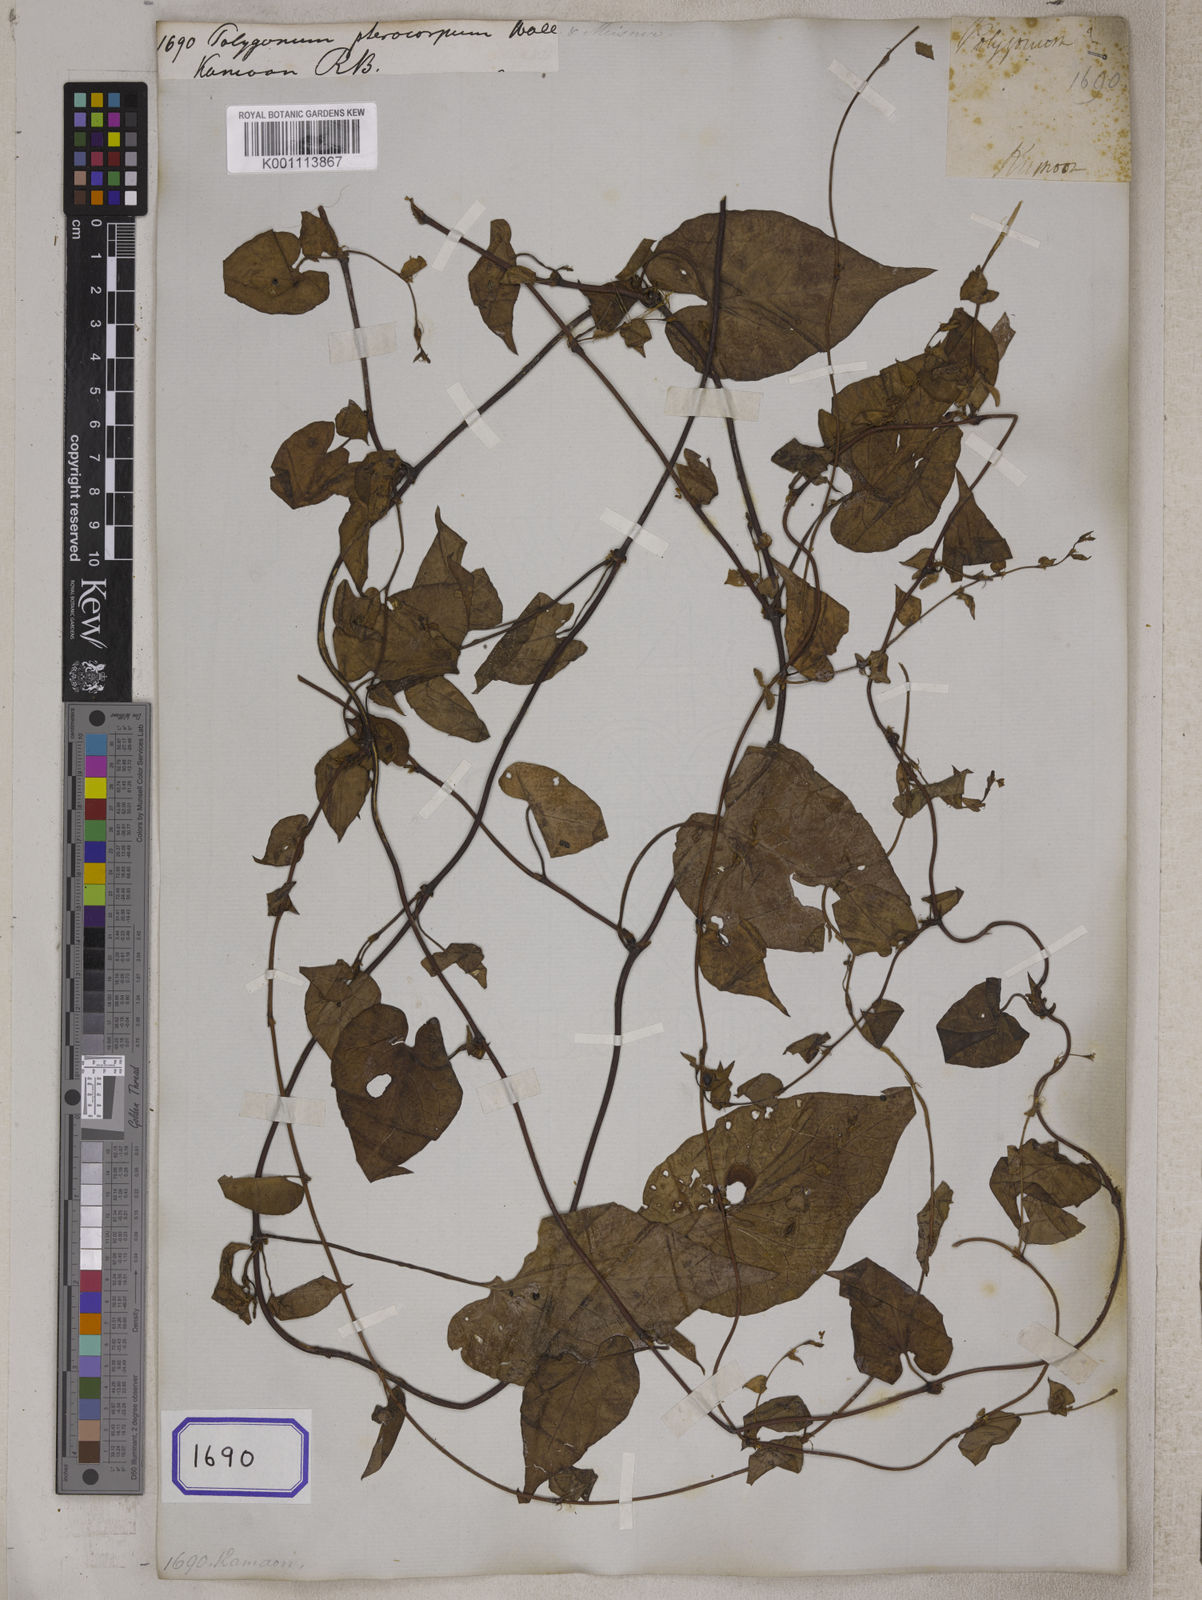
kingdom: Plantae
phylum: Tracheophyta
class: Magnoliopsida
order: Caryophyllales
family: Polygonaceae
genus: Polygonum
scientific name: Polygonum
